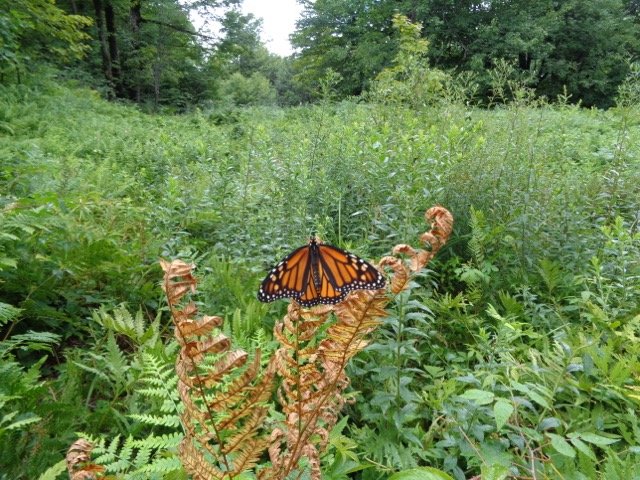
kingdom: Animalia
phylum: Arthropoda
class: Insecta
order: Lepidoptera
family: Nymphalidae
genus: Danaus
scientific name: Danaus plexippus
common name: Monarch
